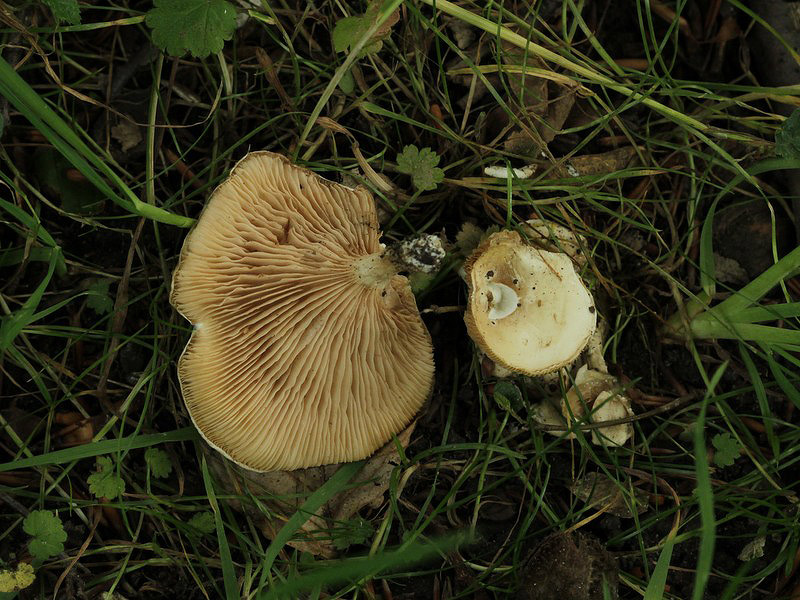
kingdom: Fungi
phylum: Basidiomycota
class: Agaricomycetes
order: Agaricales
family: Entolomataceae
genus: Clitopilus
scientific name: Clitopilus prunulus
